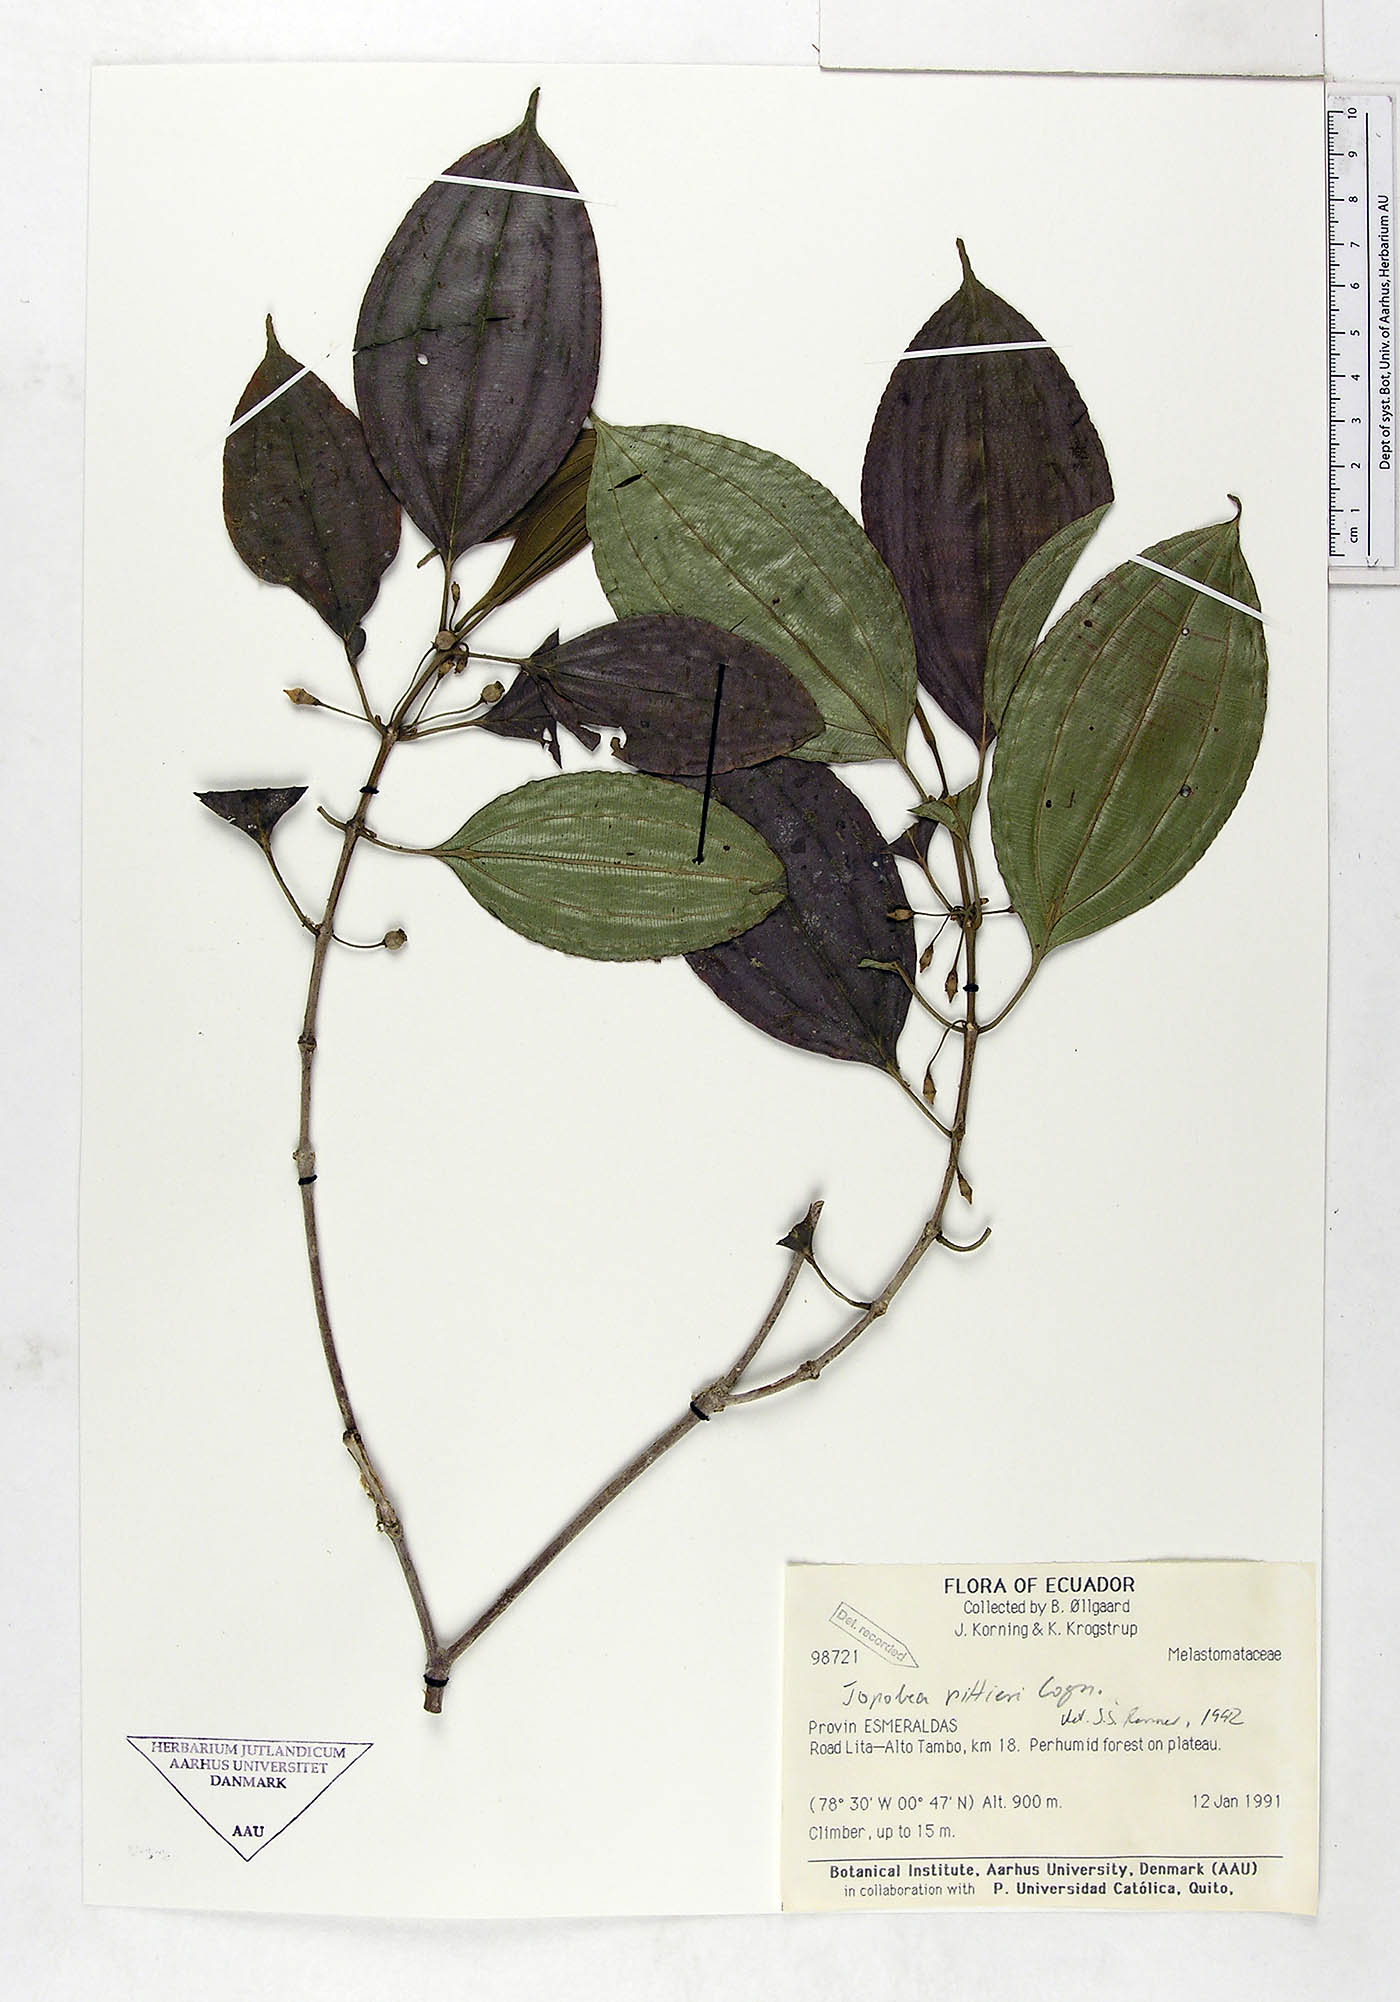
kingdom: Plantae
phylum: Tracheophyta
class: Magnoliopsida
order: Myrtales
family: Melastomataceae
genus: Blakea
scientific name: Blakea henripittieri
